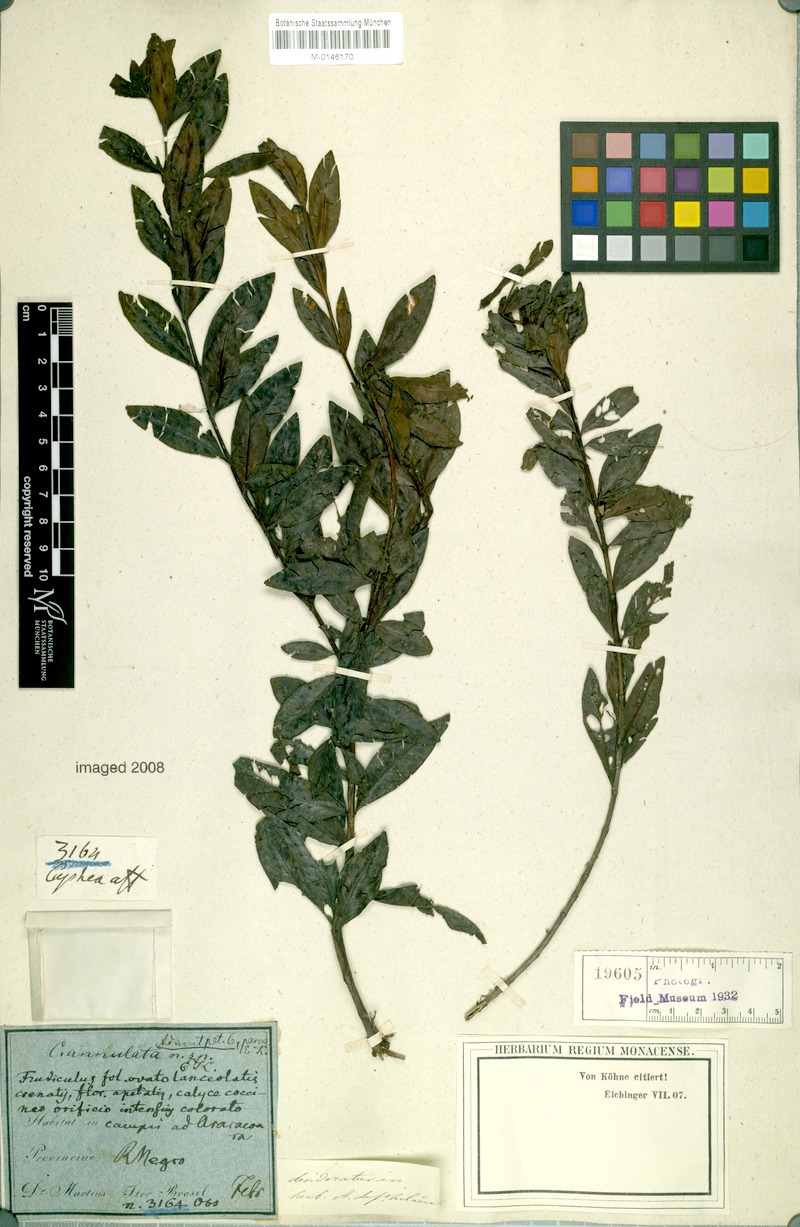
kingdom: Plantae
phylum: Tracheophyta
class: Magnoliopsida
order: Myrtales
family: Lythraceae
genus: Cuphea
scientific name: Cuphea annulata
